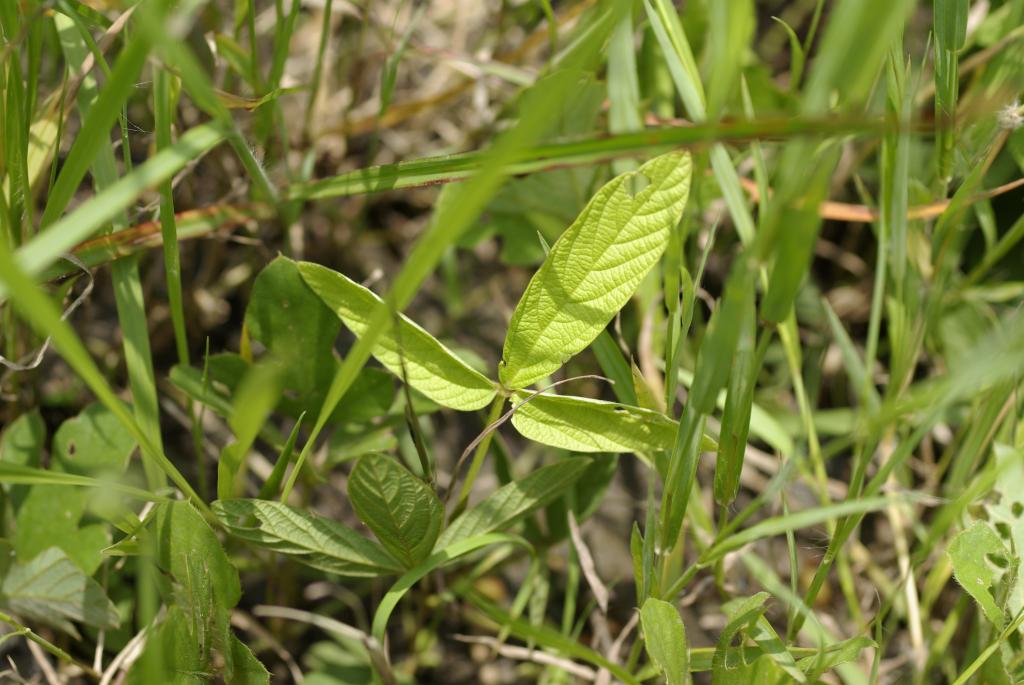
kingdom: Plantae
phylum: Tracheophyta
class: Magnoliopsida
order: Fabales
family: Fabaceae
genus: Flemingia
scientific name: Flemingia macrophylla
